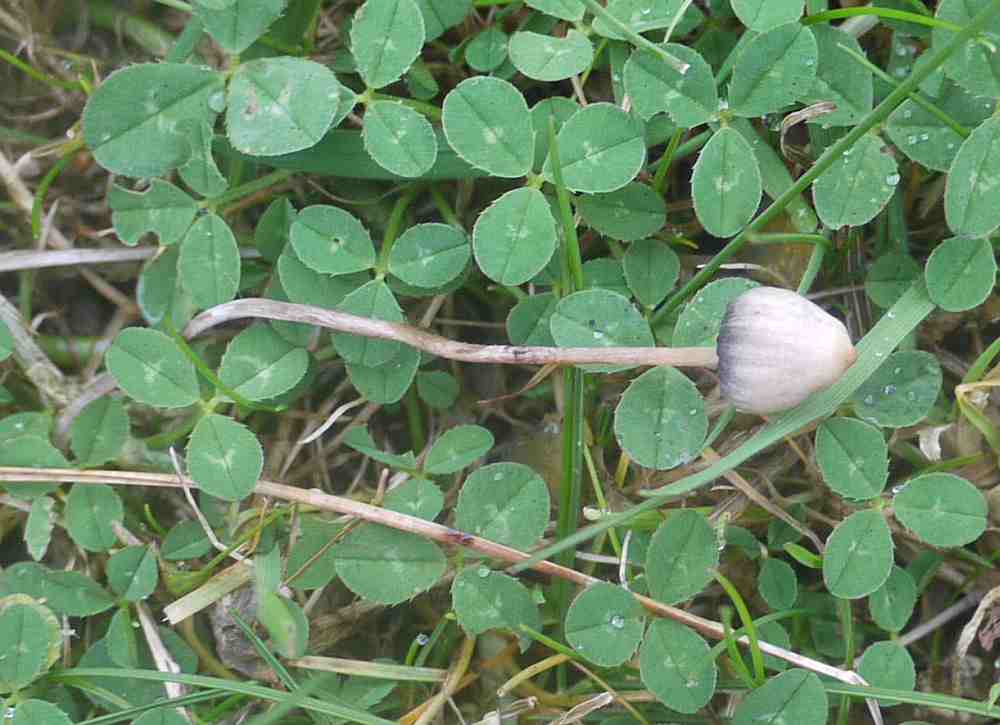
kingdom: Fungi
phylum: Basidiomycota
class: Agaricomycetes
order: Agaricales
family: Hymenogastraceae
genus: Psilocybe
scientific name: Psilocybe semilanceata
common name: spids nøgenhat
